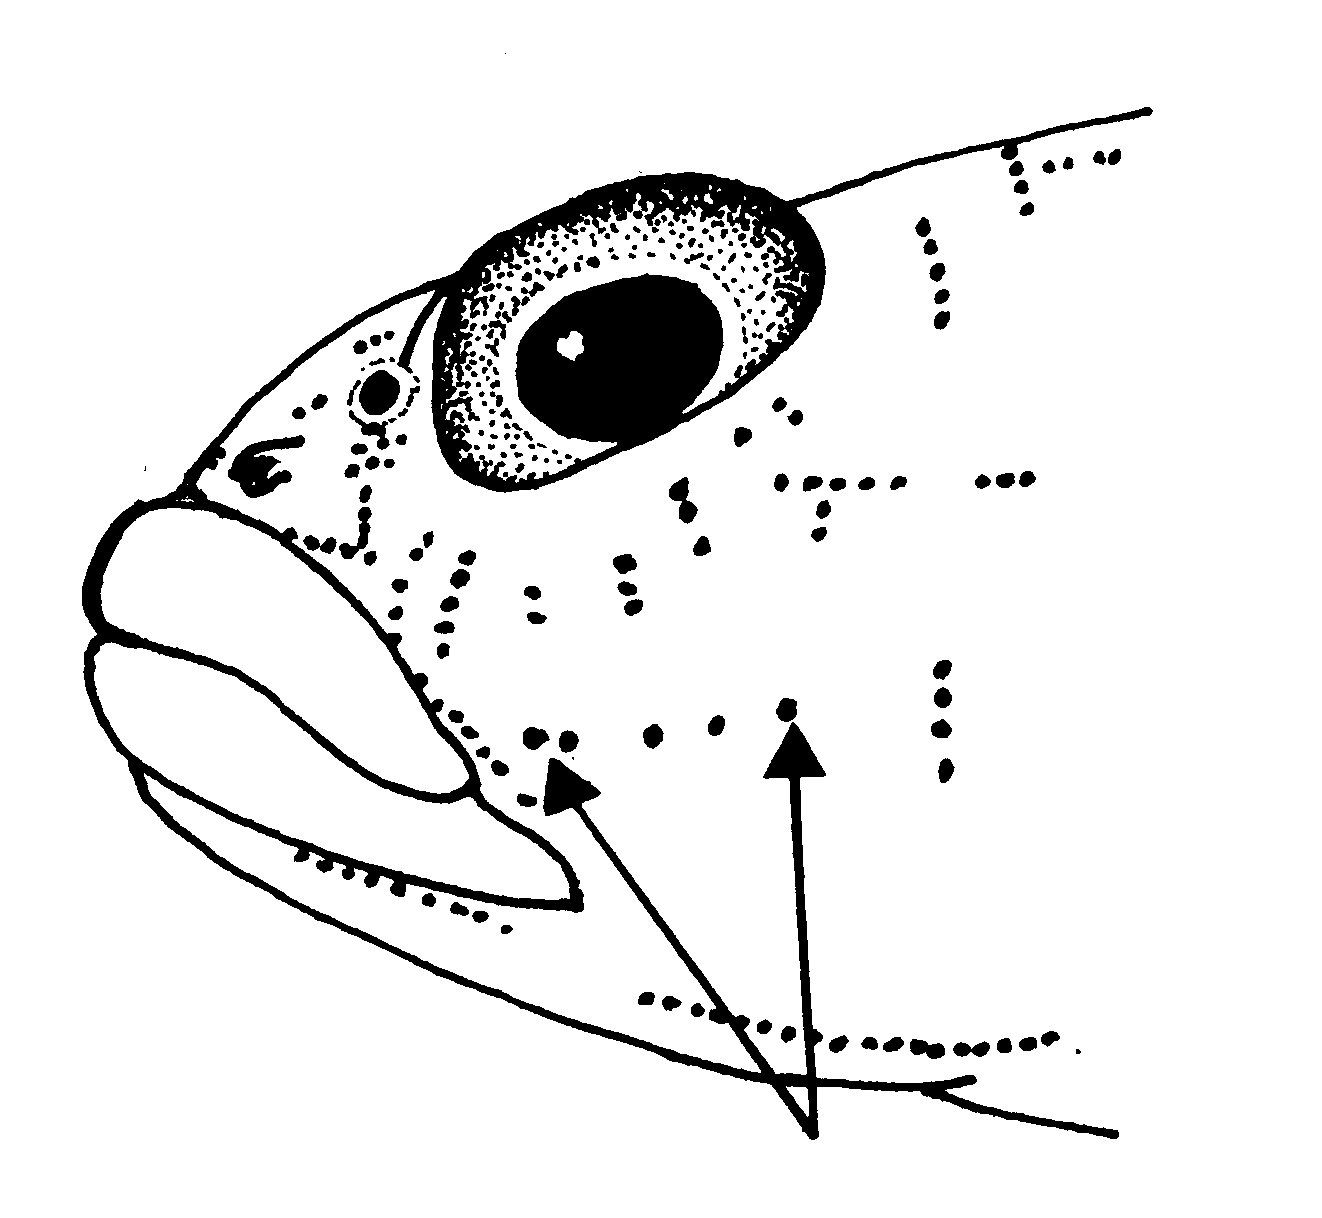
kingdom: Animalia
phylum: Chordata
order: Perciformes
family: Gobiidae
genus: Caffrogobius
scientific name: Caffrogobius agulhensis
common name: Agulhas goby
